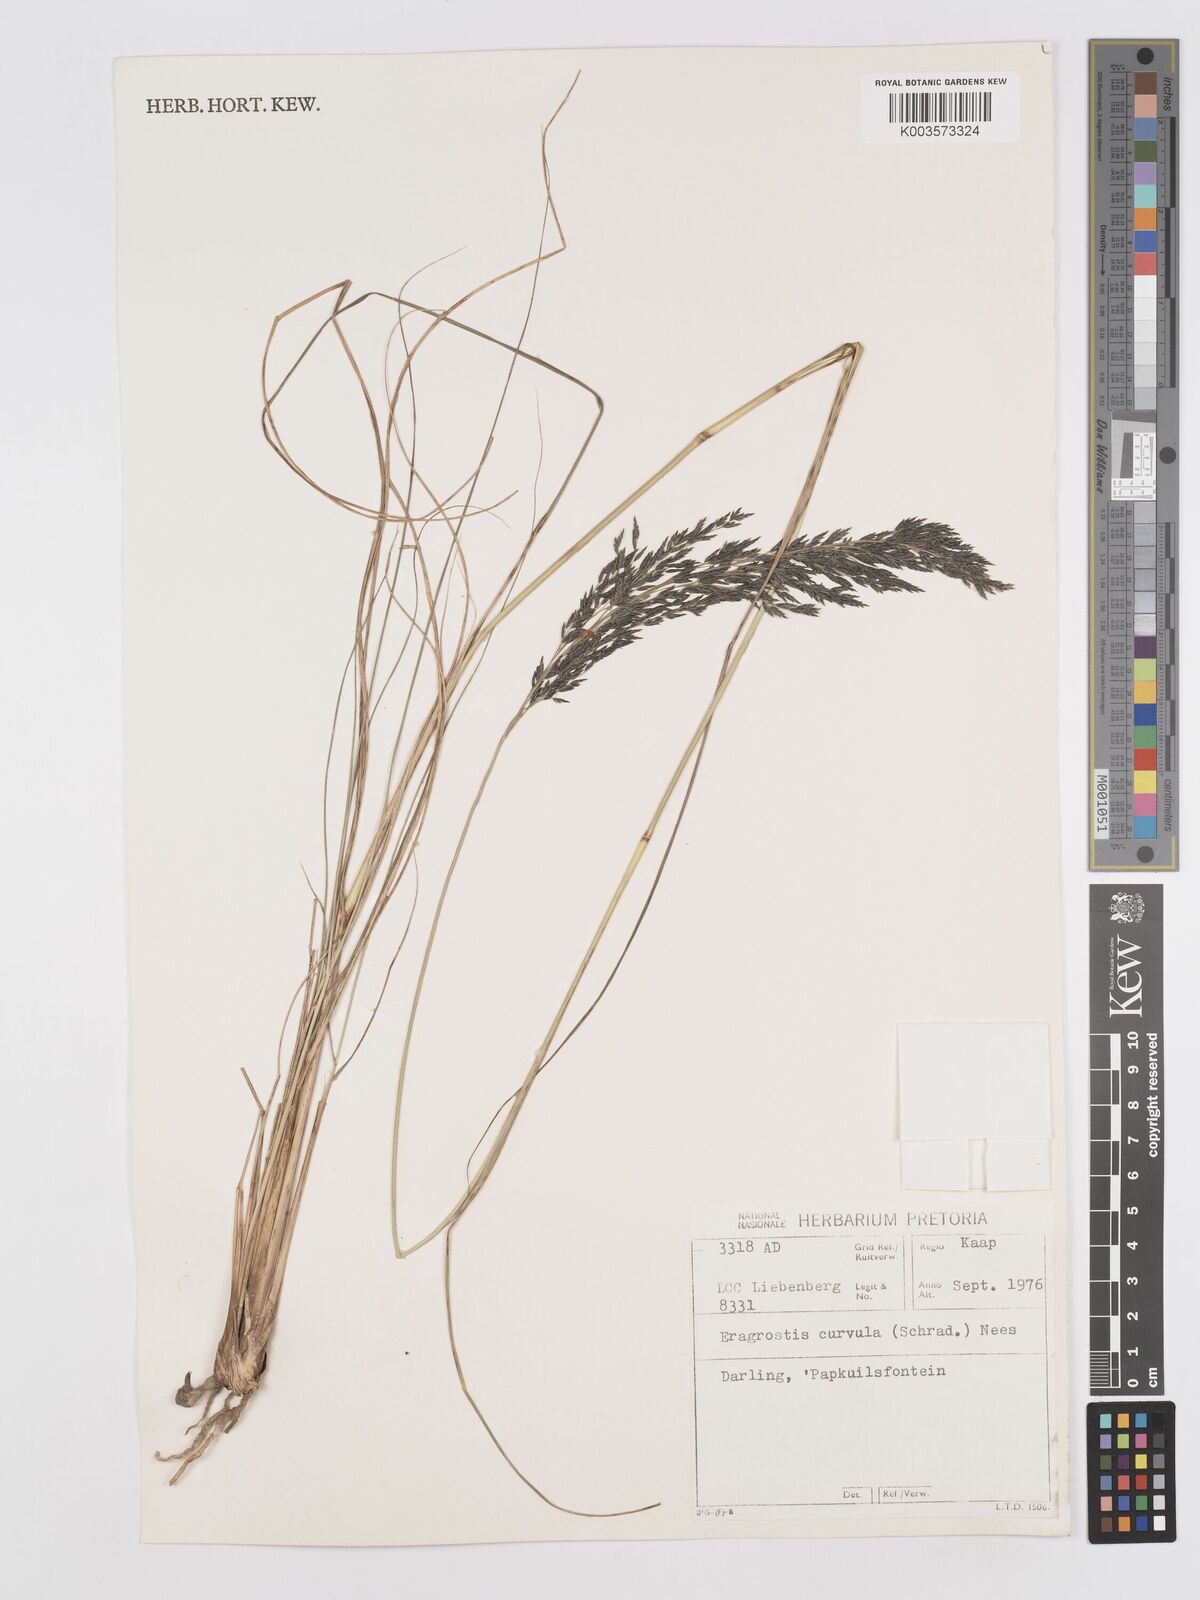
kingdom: Plantae
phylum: Tracheophyta
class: Liliopsida
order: Poales
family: Poaceae
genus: Eragrostis
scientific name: Eragrostis curvula
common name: African love-grass
